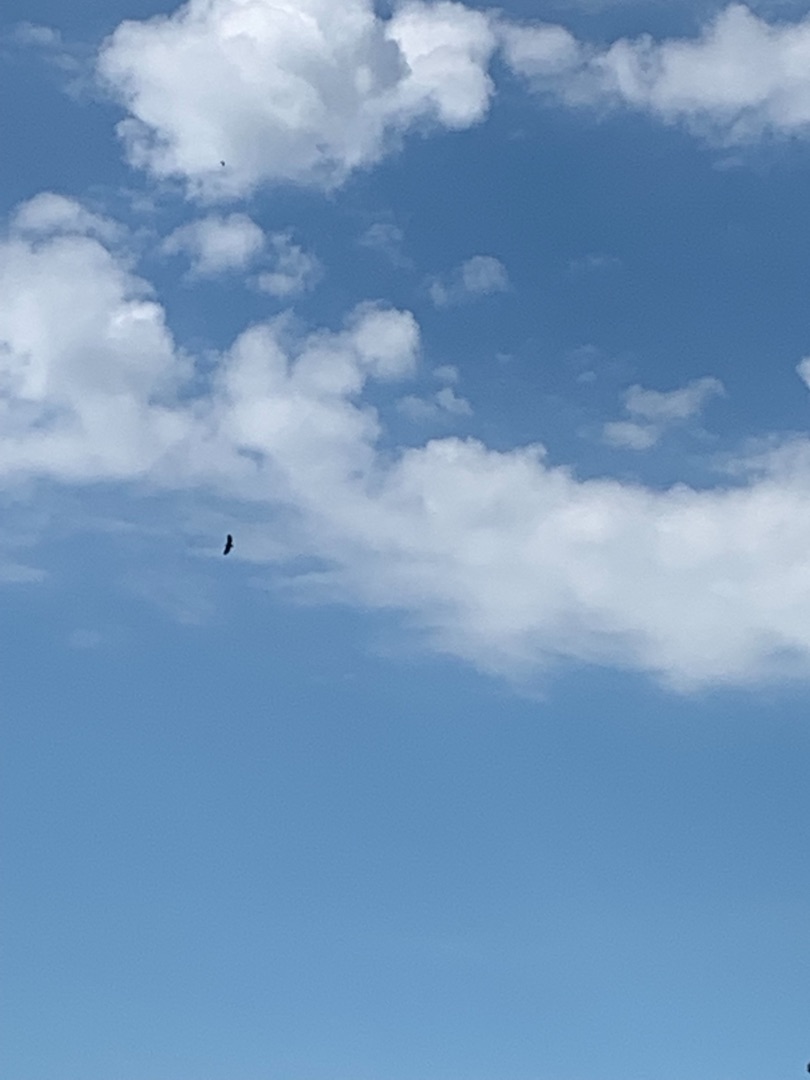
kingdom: Animalia
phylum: Chordata
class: Aves
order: Accipitriformes
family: Accipitridae
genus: Haliaeetus
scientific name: Haliaeetus albicilla
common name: Havørn
